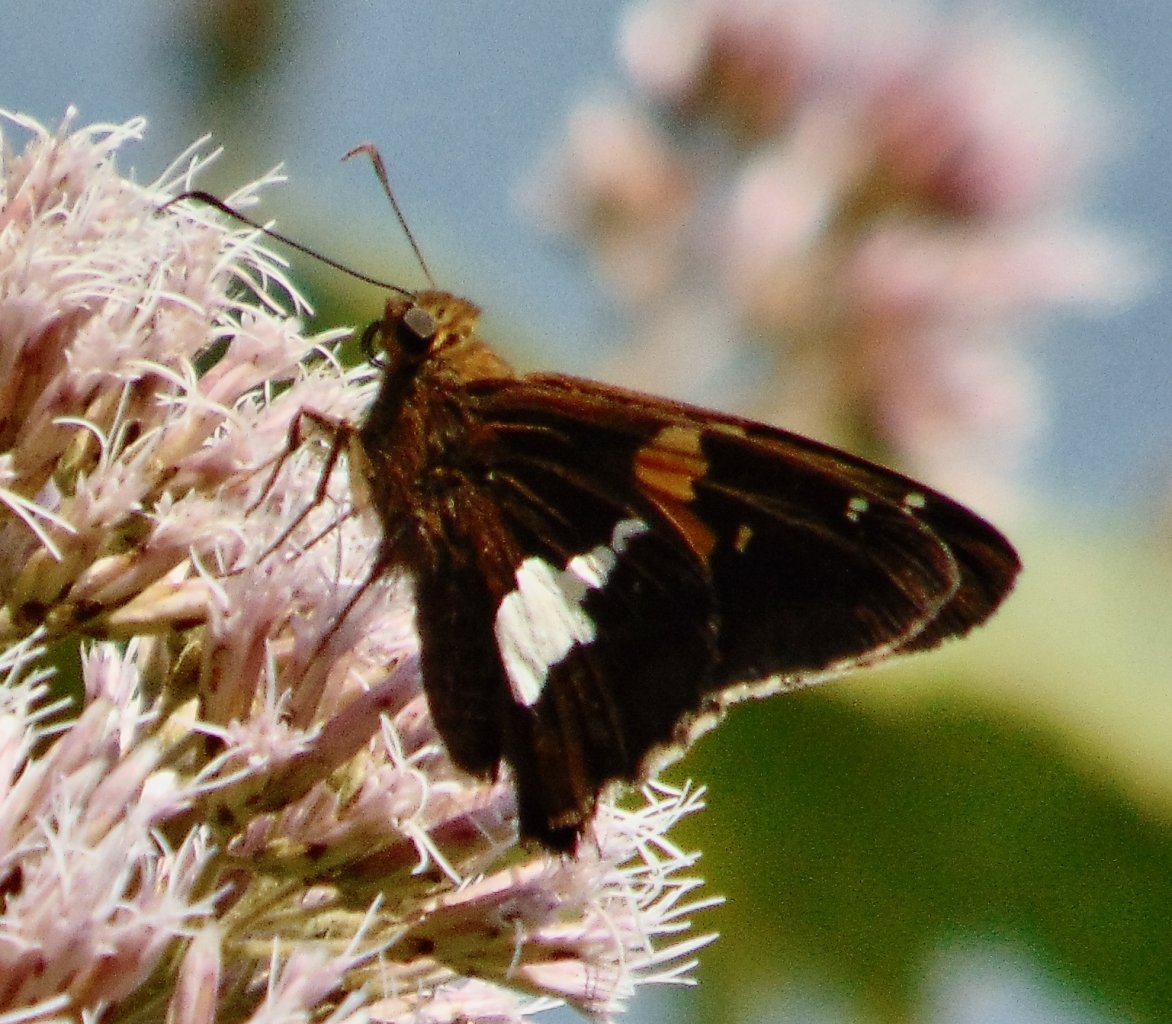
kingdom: Animalia
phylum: Arthropoda
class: Insecta
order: Lepidoptera
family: Hesperiidae
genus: Epargyreus
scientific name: Epargyreus clarus
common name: Silver-spotted Skipper
